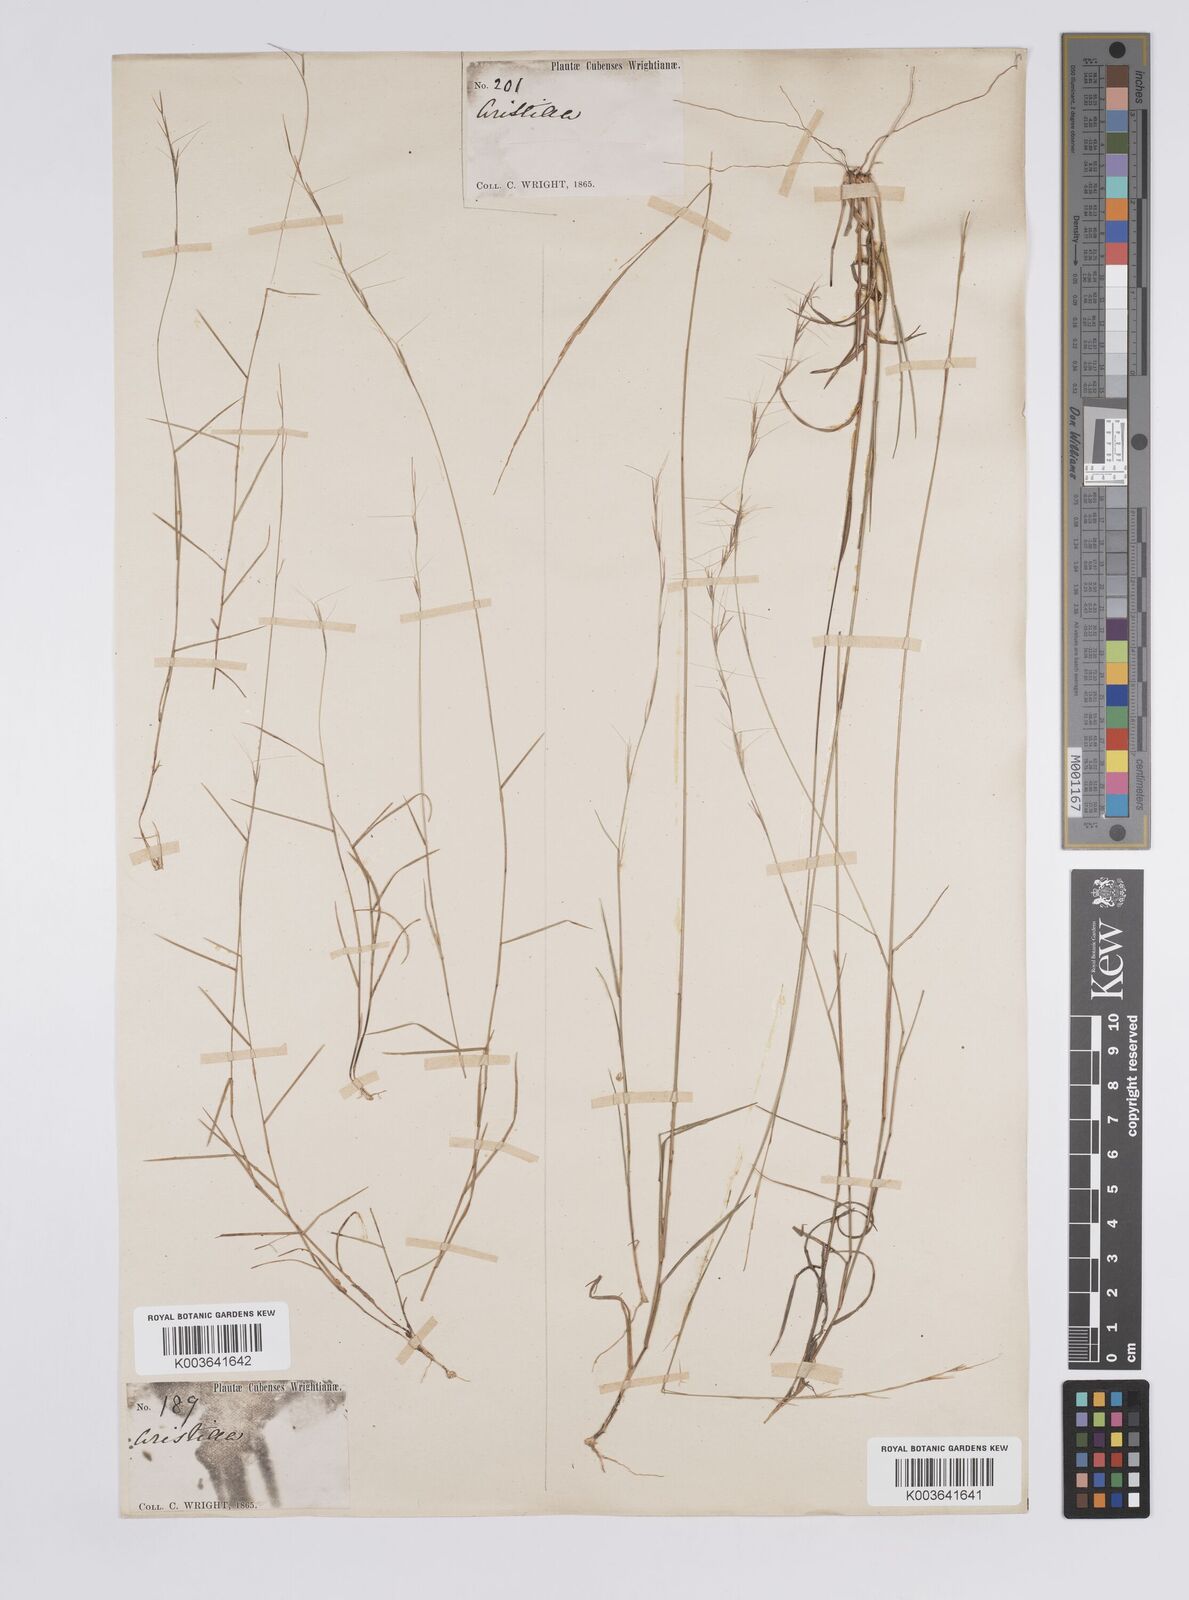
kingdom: Plantae
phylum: Tracheophyta
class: Liliopsida
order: Poales
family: Poaceae
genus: Aristida
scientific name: Aristida vilfifolia
